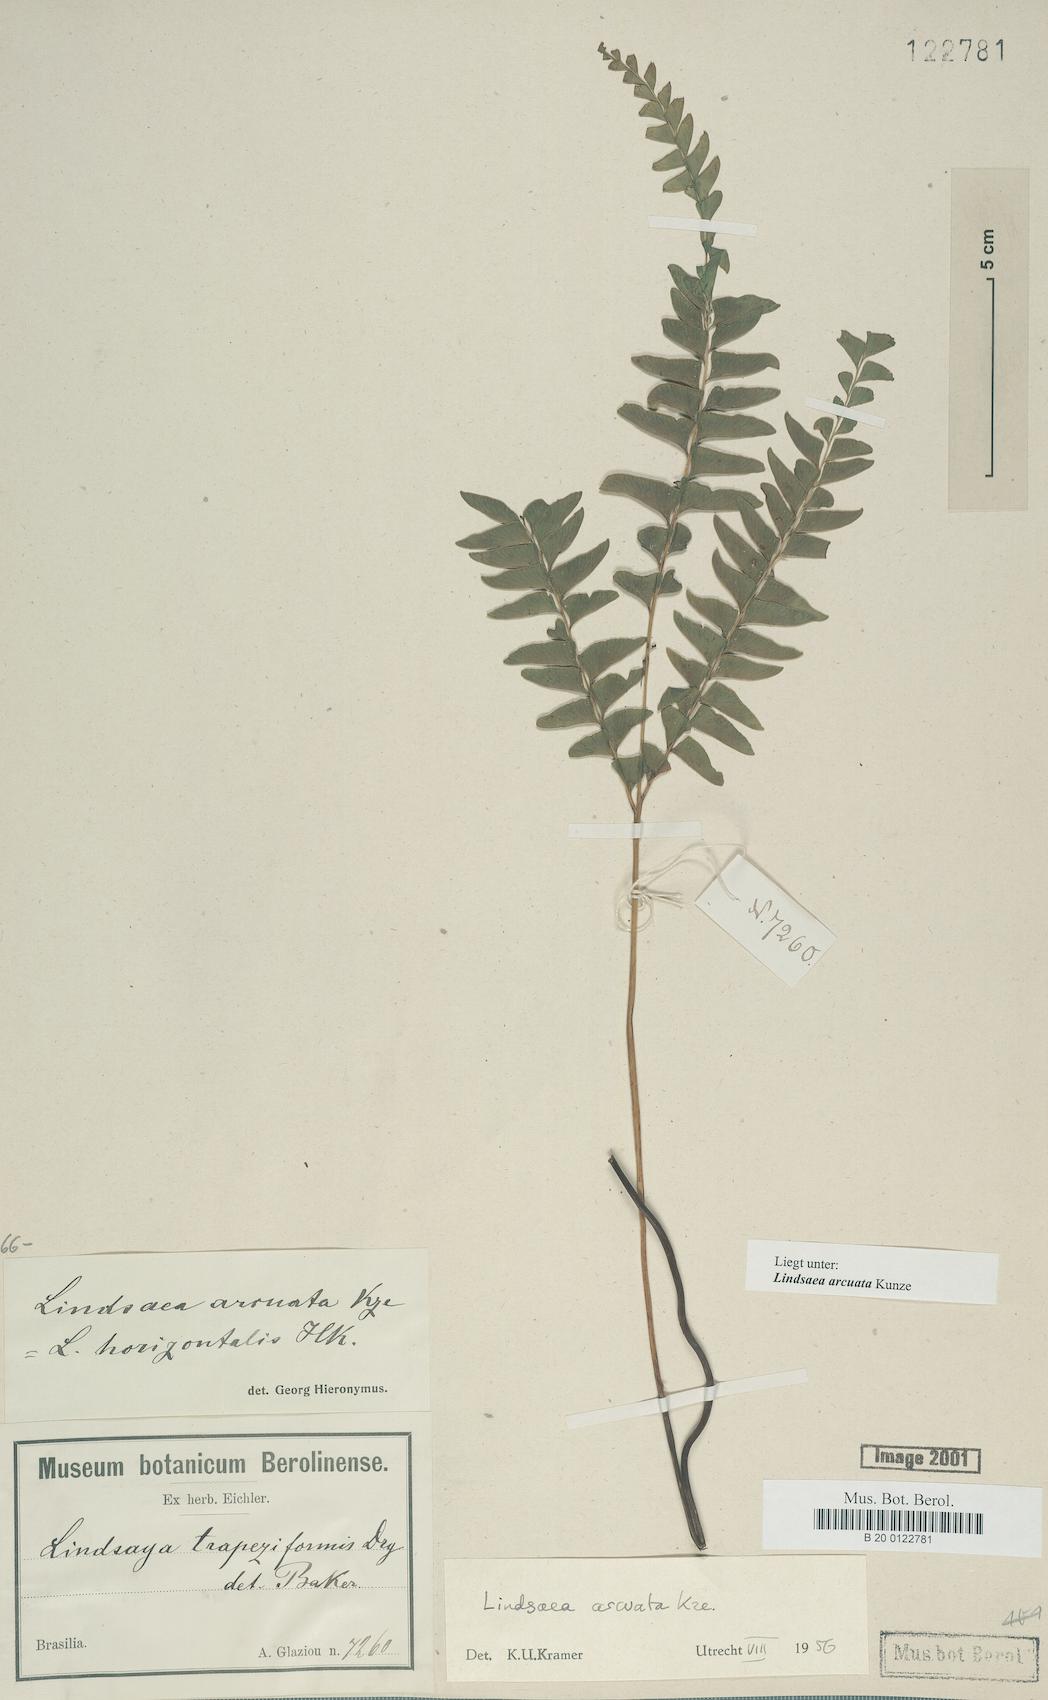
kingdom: Plantae
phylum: Tracheophyta
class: Polypodiopsida
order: Polypodiales
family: Lindsaeaceae
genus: Lindsaea
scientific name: Lindsaea arcuata
